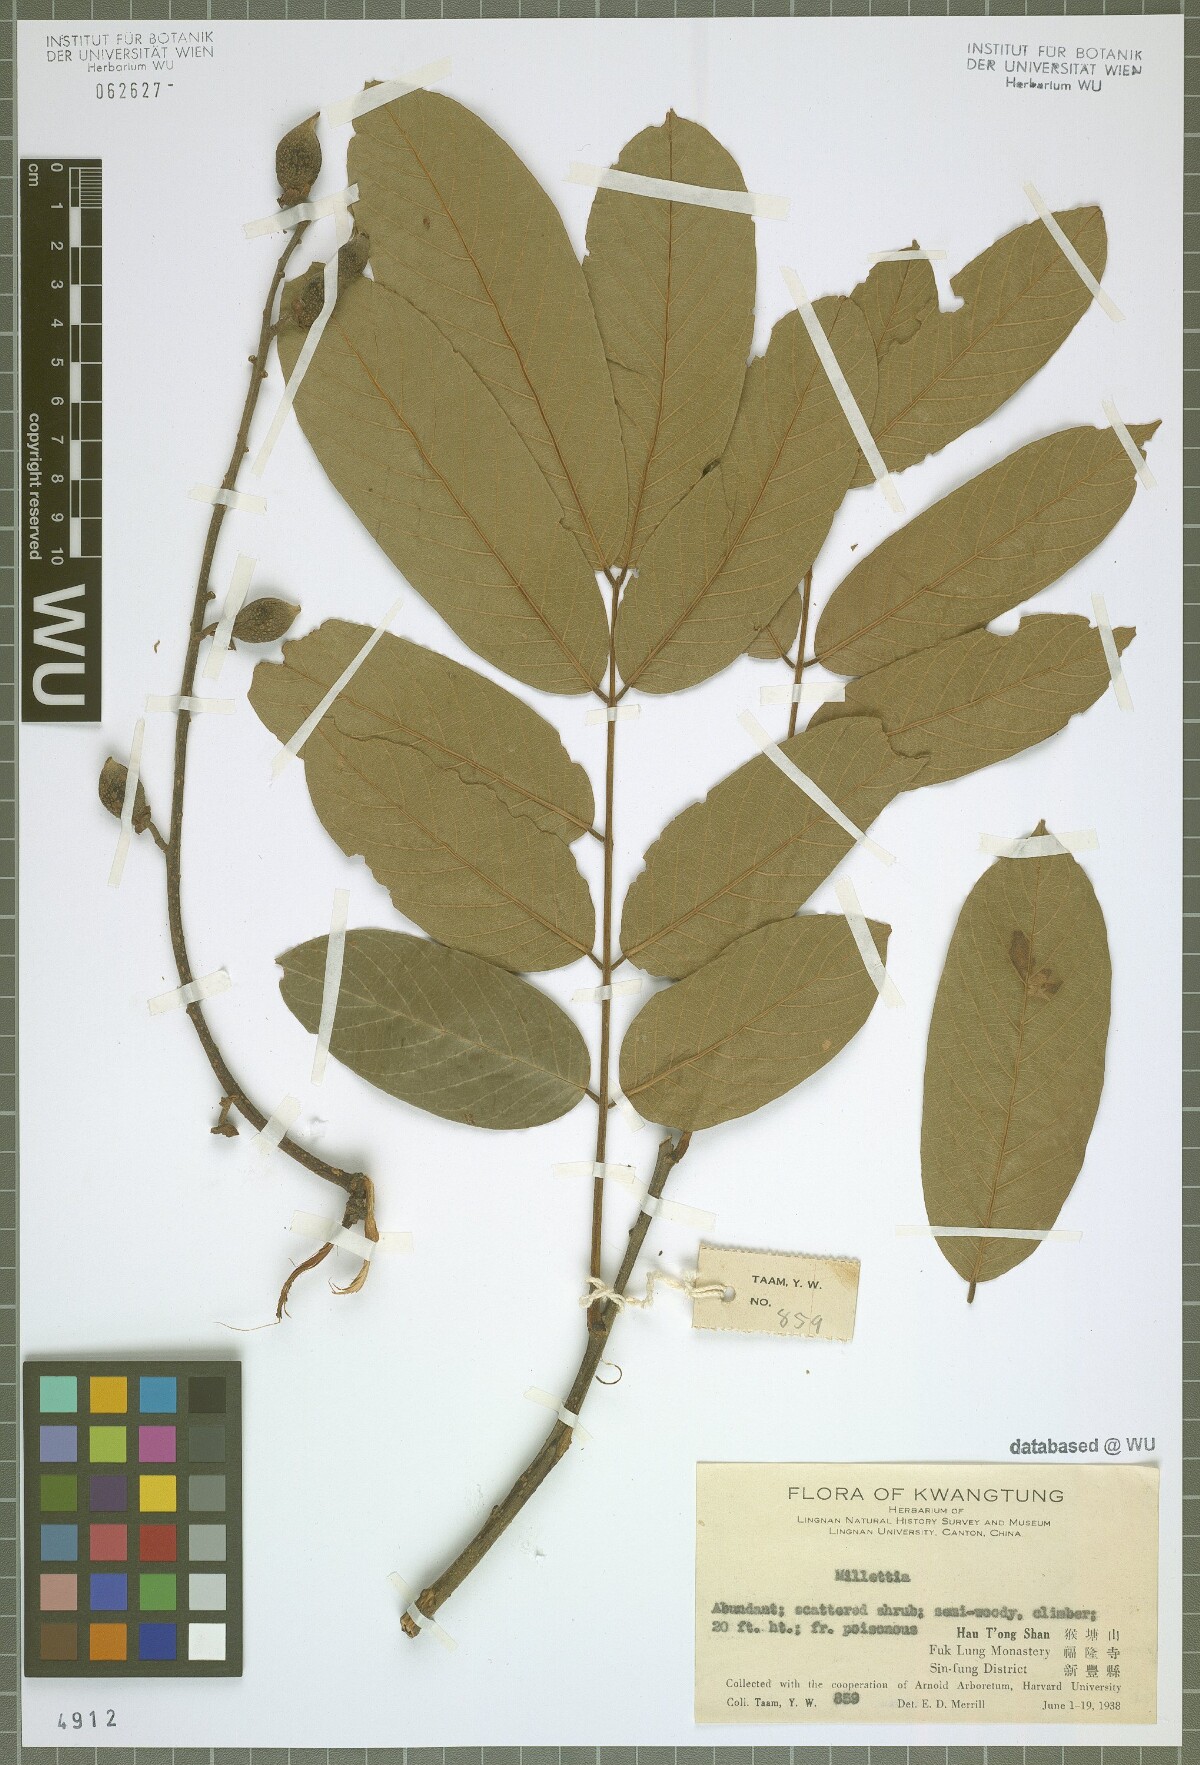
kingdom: Plantae
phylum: Tracheophyta
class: Magnoliopsida
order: Fabales
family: Fabaceae
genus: Millettia
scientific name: Millettia
